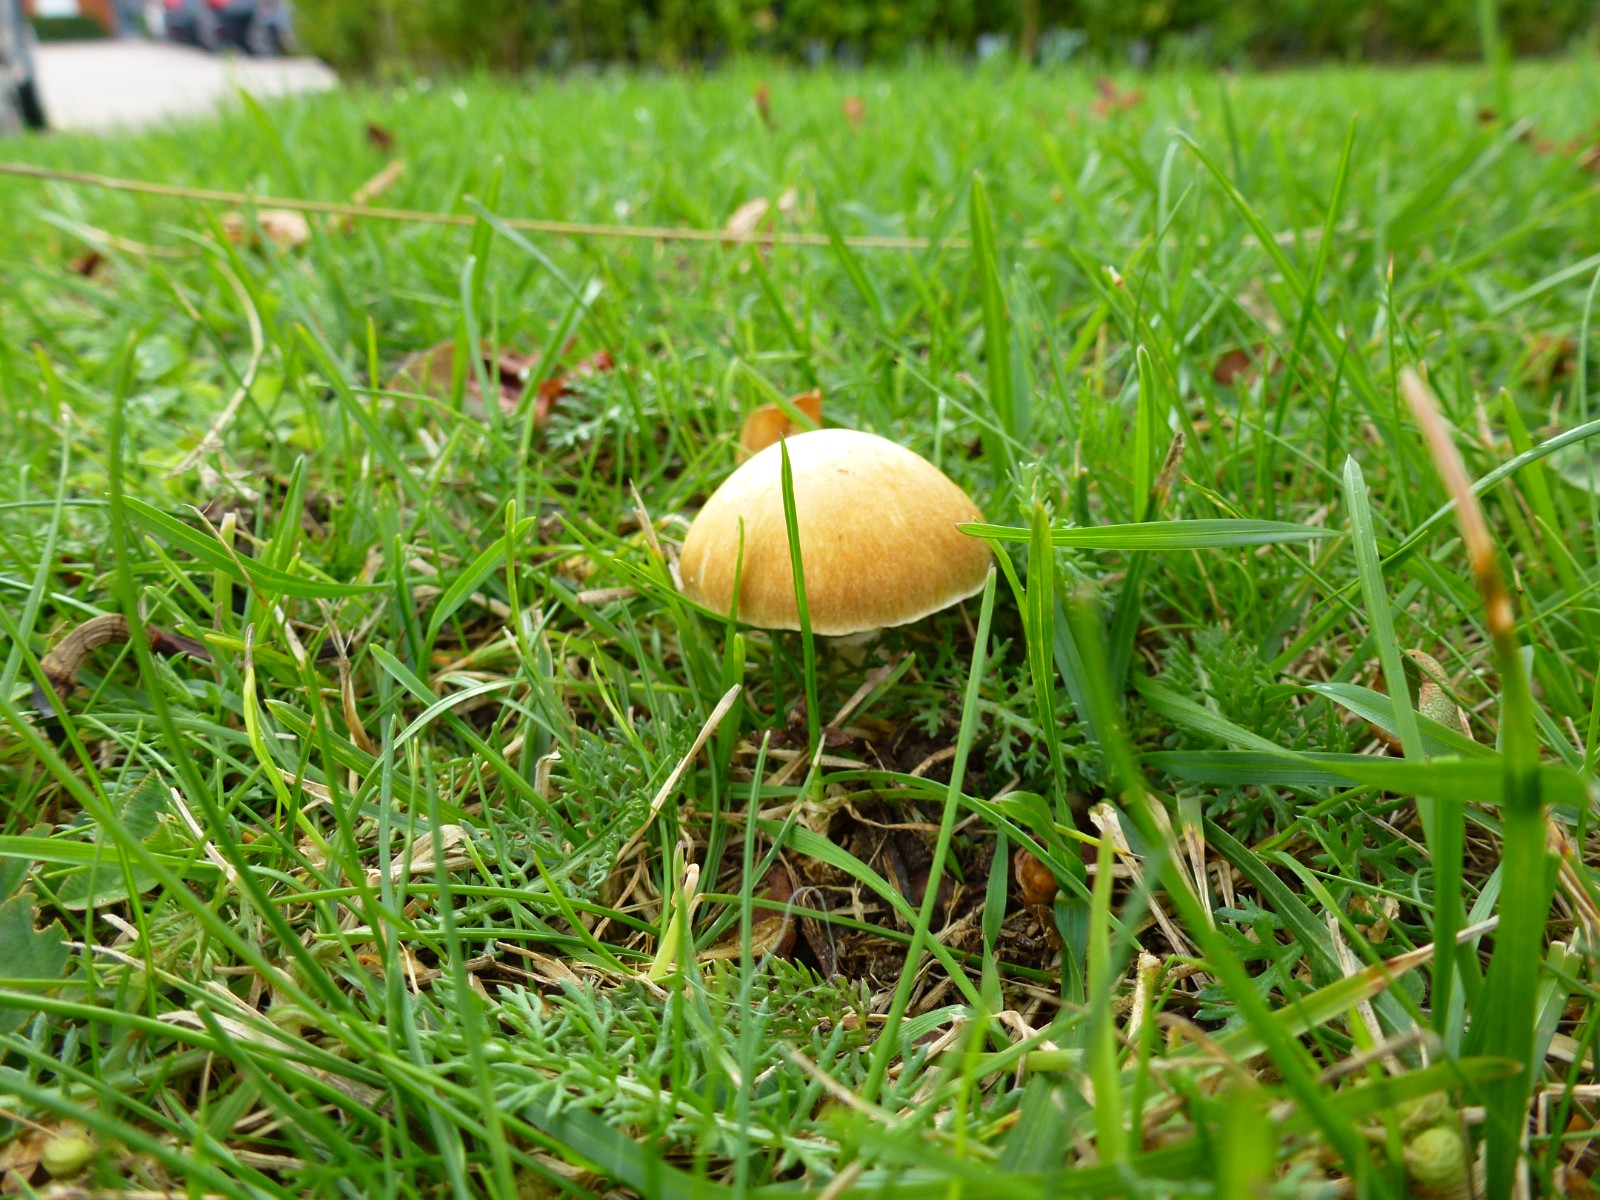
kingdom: Fungi
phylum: Basidiomycota
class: Agaricomycetes
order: Agaricales
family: Hymenogastraceae
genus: Psilocybe
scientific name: Psilocybe coronilla
